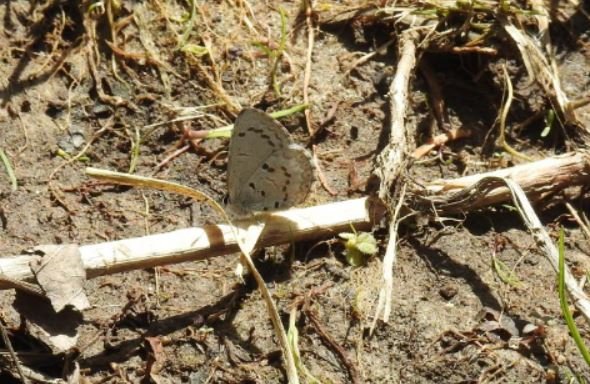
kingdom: Animalia
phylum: Arthropoda
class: Insecta
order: Lepidoptera
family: Lycaenidae
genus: Celastrina
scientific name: Celastrina
